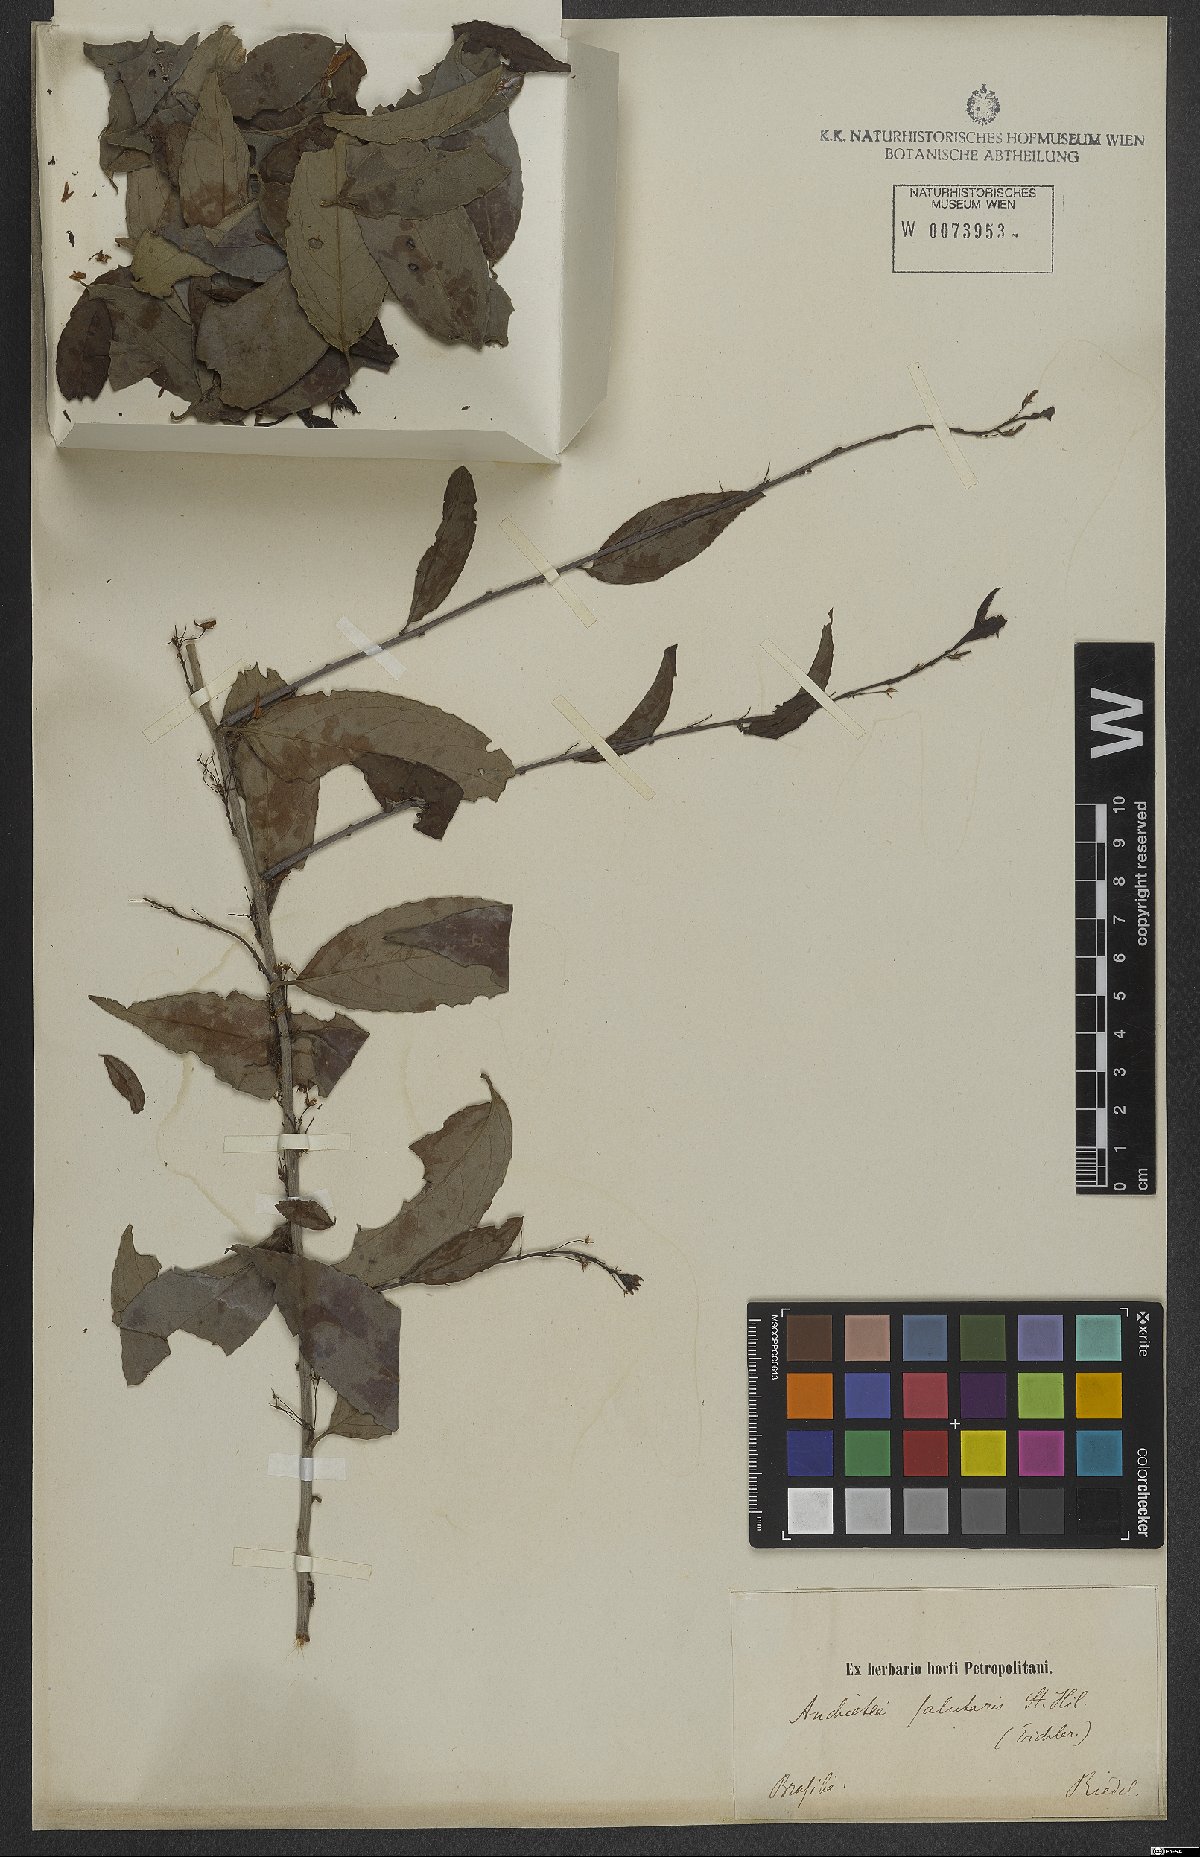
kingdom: Plantae
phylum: Tracheophyta
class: Magnoliopsida
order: Malpighiales
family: Violaceae
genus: Anchietea
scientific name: Anchietea pyrifolia
